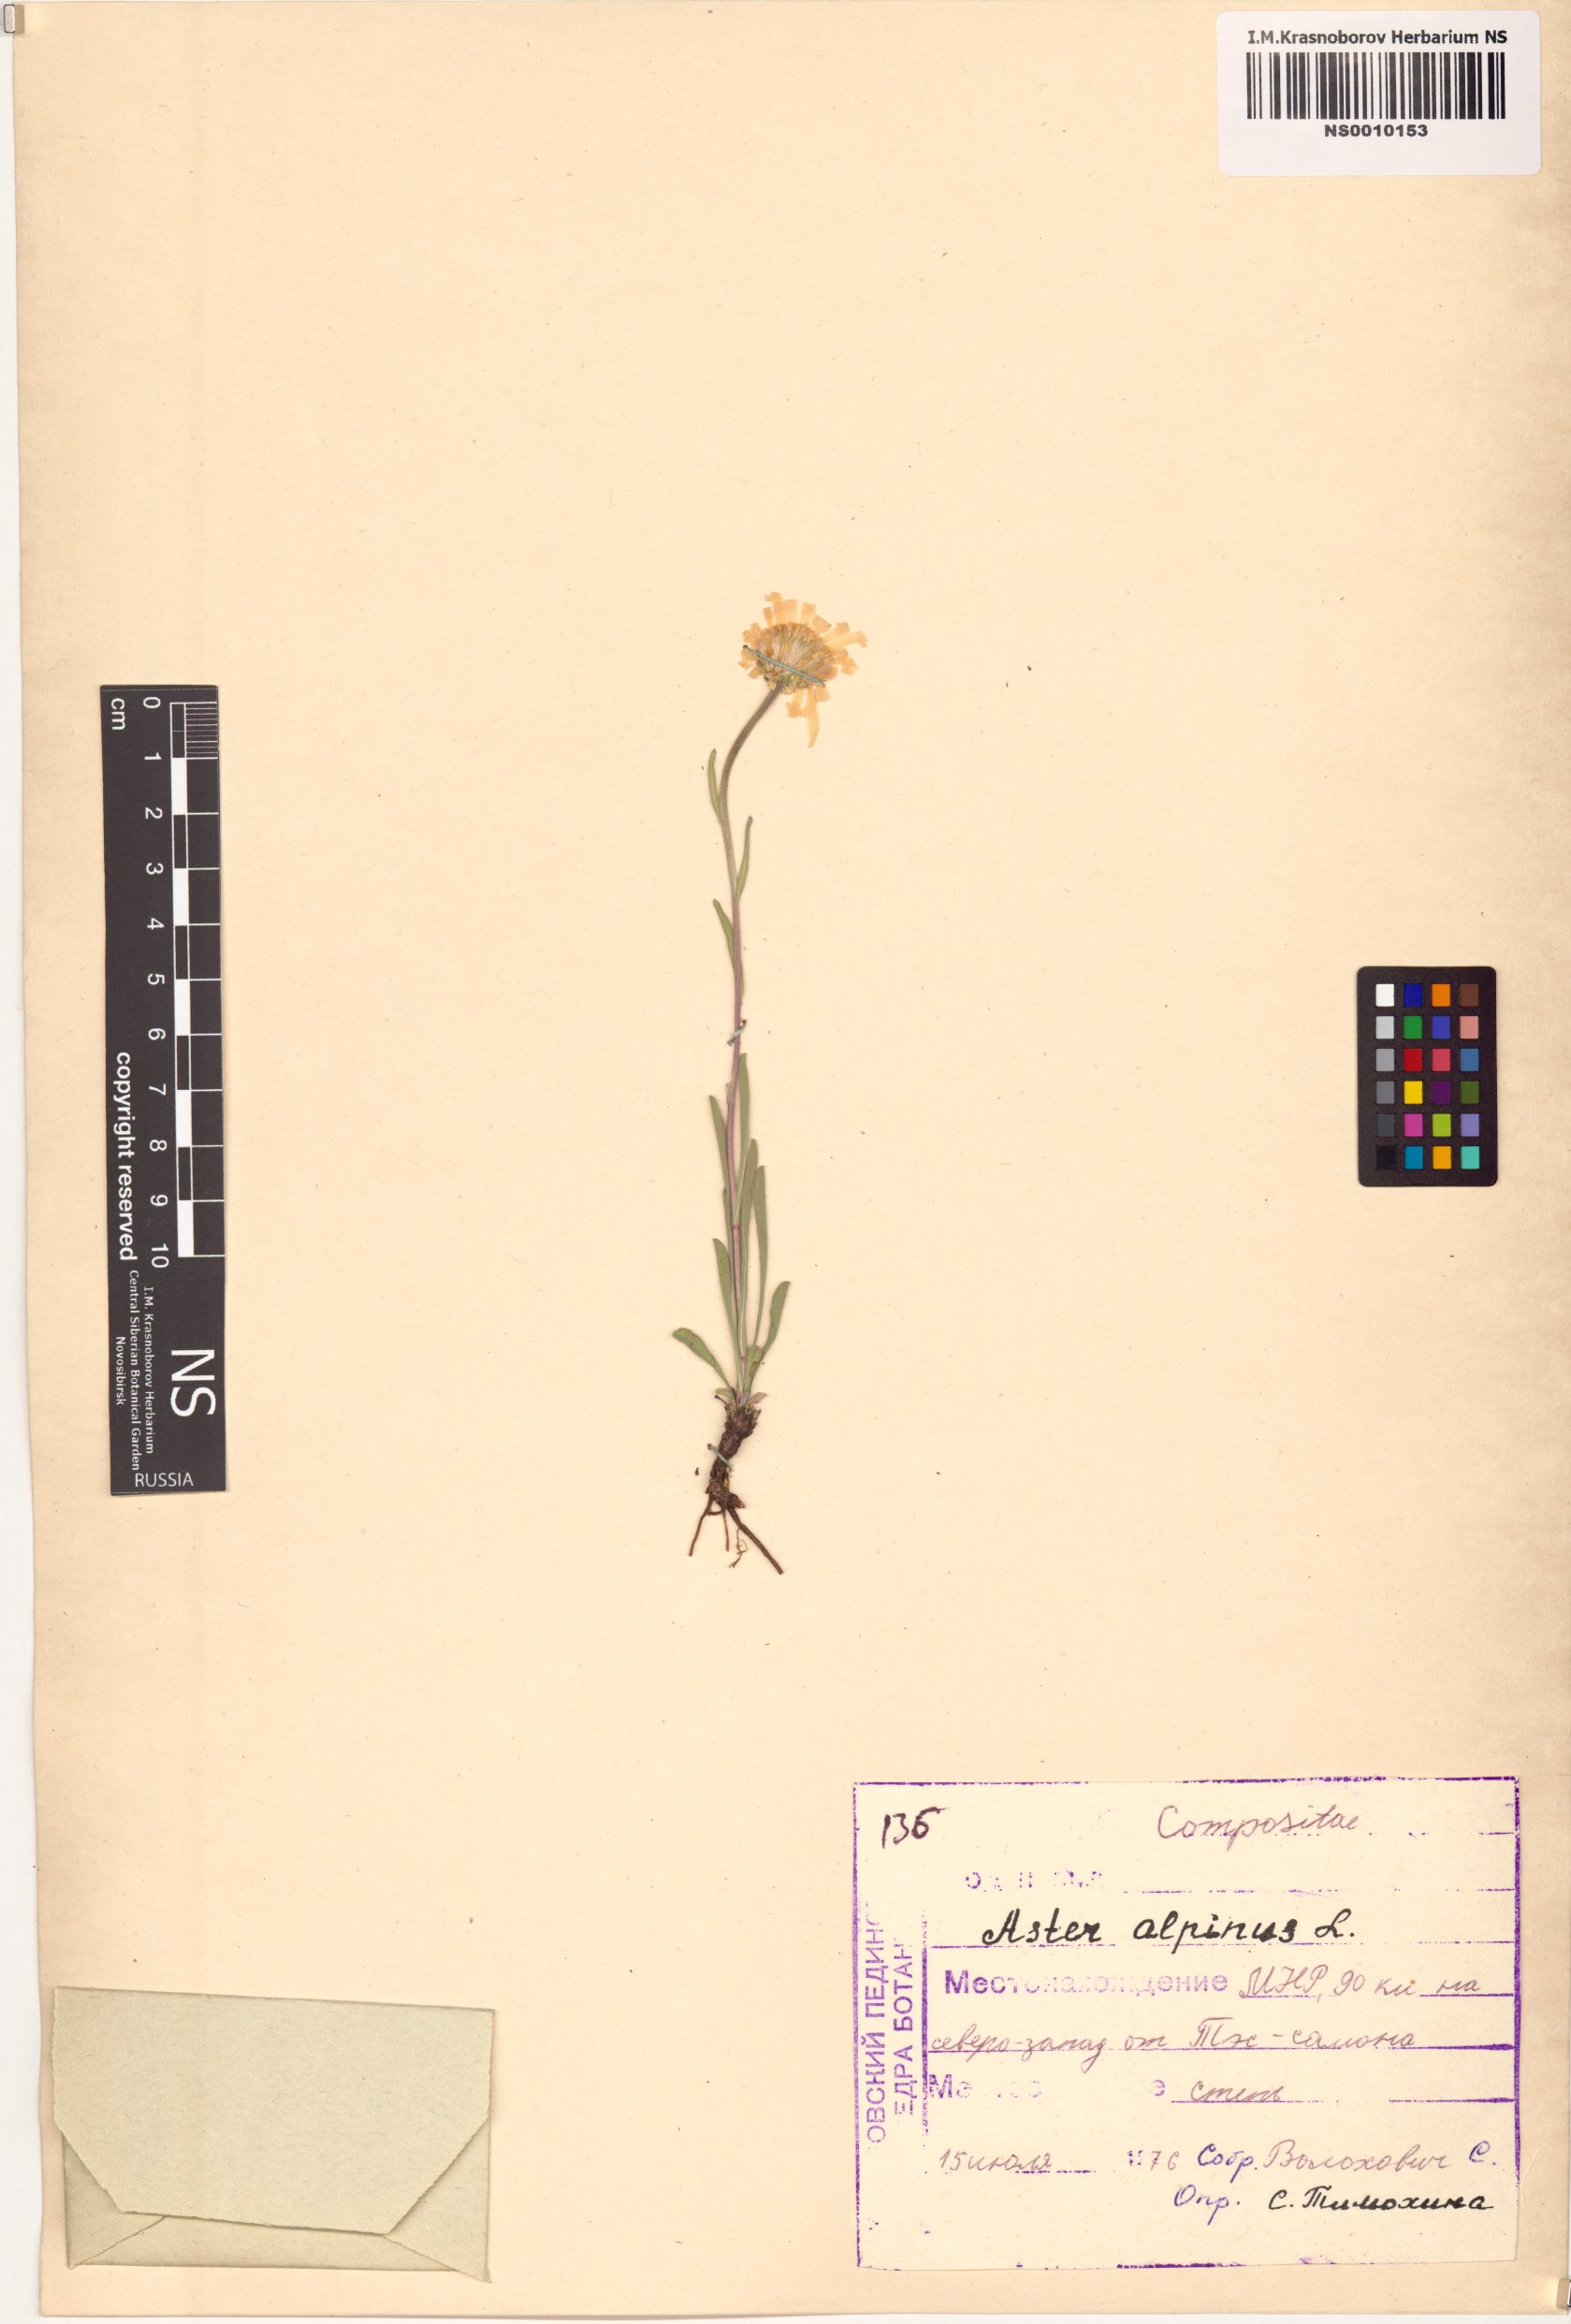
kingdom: Plantae
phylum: Tracheophyta
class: Magnoliopsida
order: Asterales
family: Asteraceae
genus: Aster
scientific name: Aster alpinus
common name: Alpine aster
